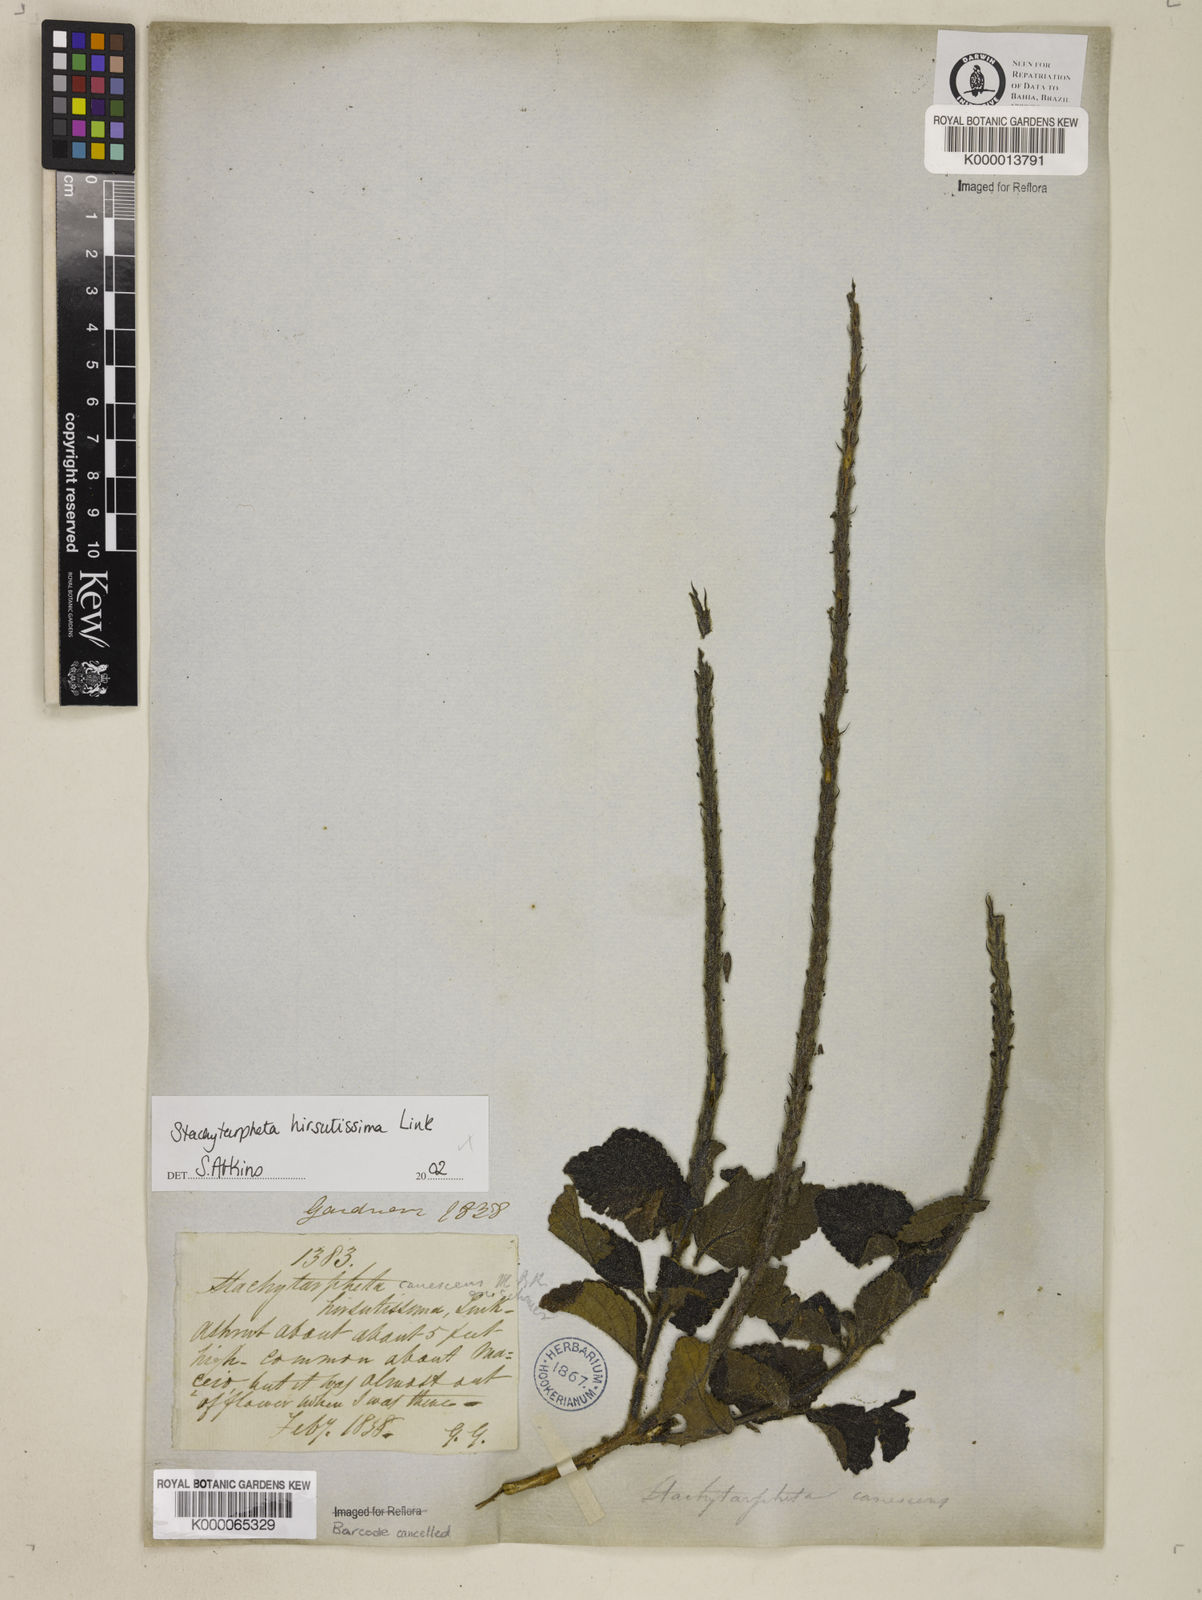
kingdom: Plantae
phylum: Tracheophyta
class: Magnoliopsida
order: Lamiales
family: Verbenaceae
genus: Stachytarpheta
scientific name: Stachytarpheta hirsutissima
